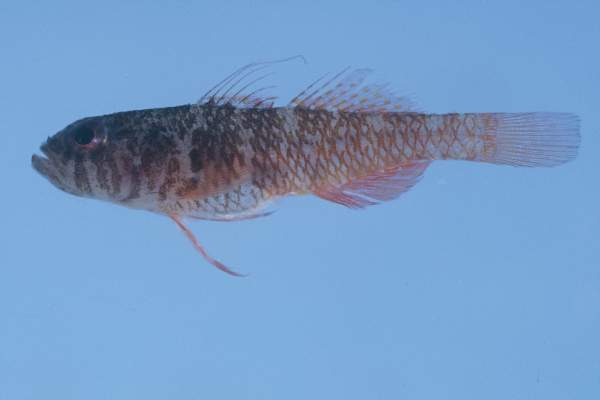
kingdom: Animalia
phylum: Chordata
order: Perciformes
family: Gobiidae
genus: Trimma
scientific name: Trimma mendelssohni
